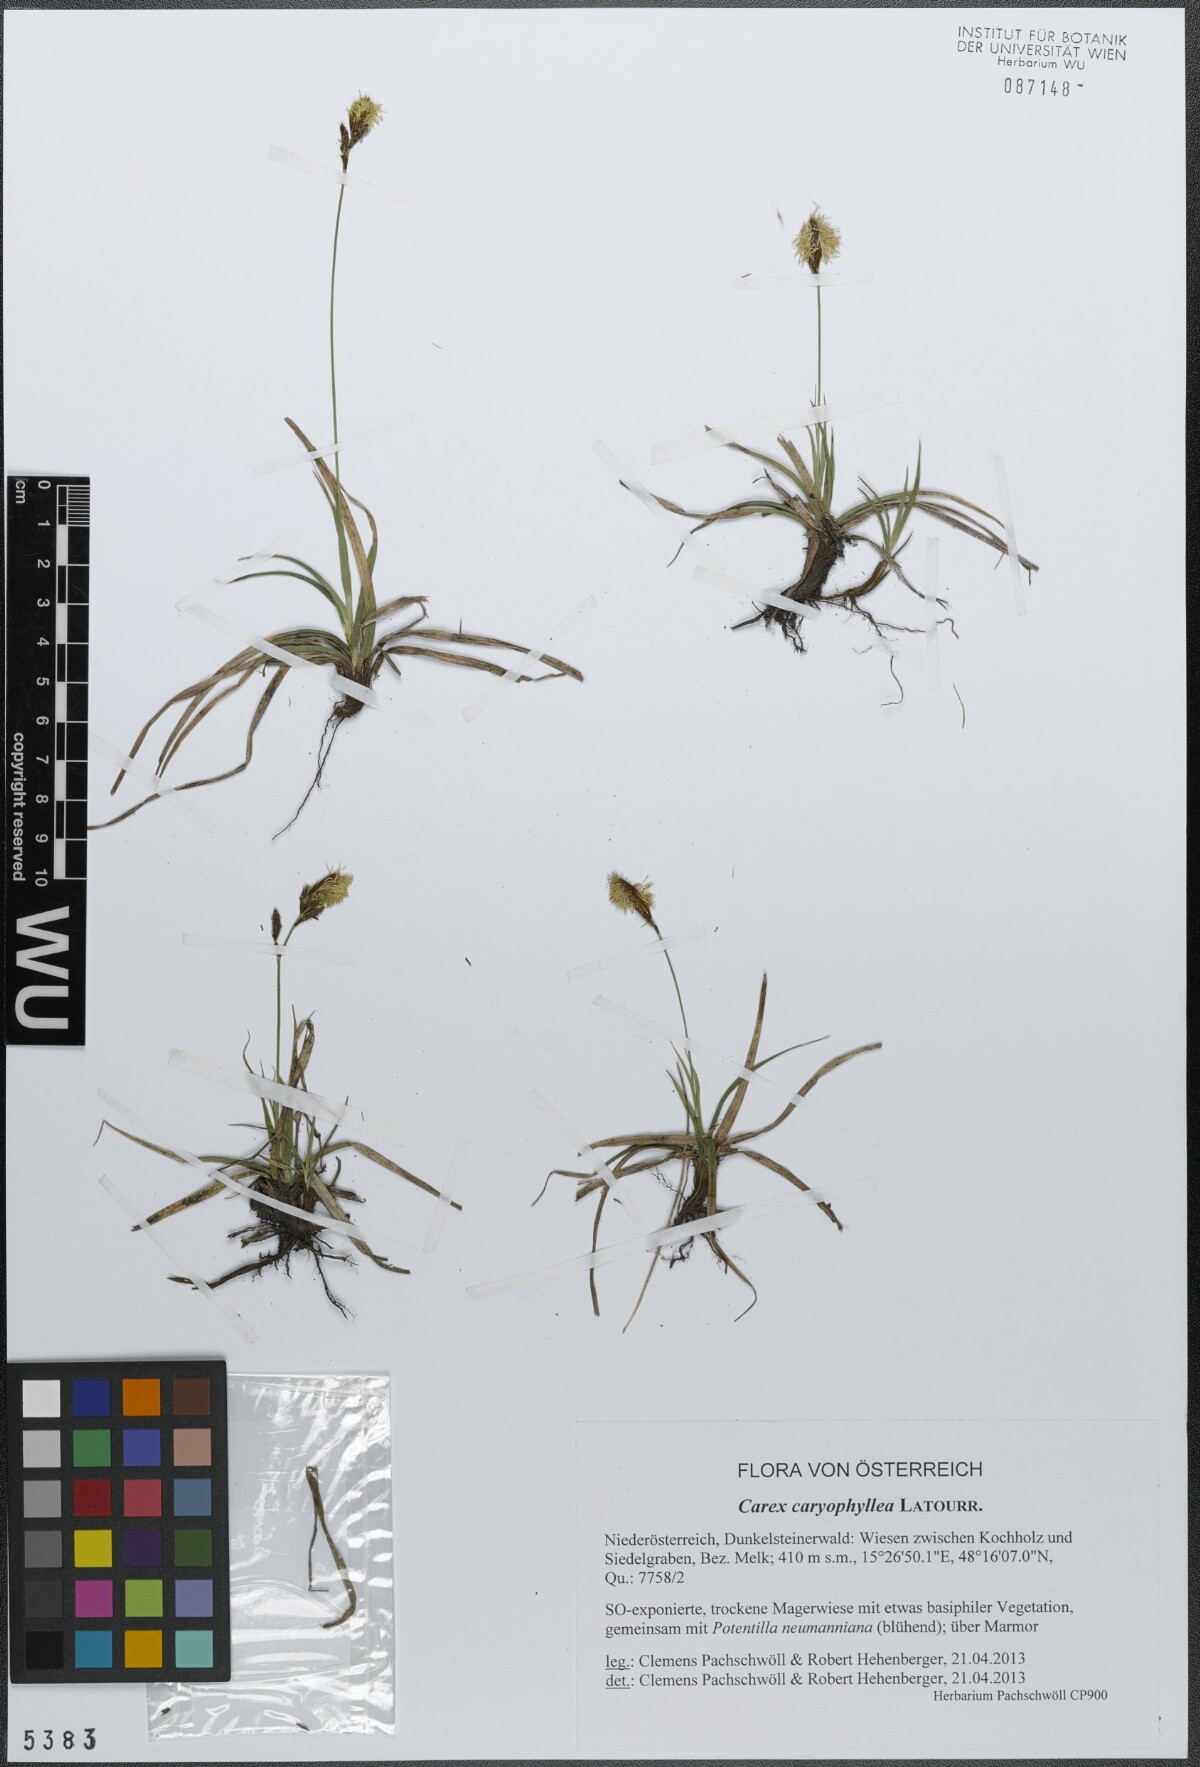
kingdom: Plantae
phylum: Tracheophyta
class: Liliopsida
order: Poales
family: Cyperaceae
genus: Carex
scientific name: Carex caryophyllea
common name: Spring sedge
